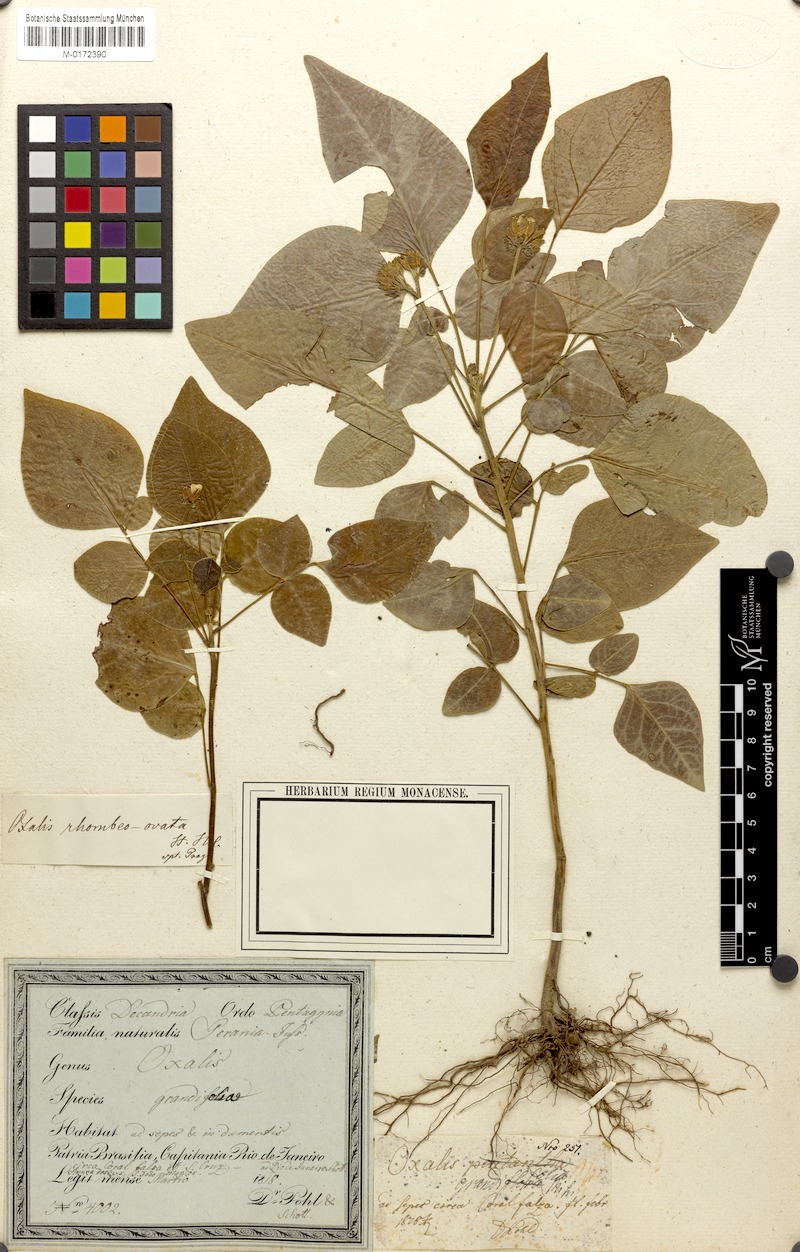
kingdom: Plantae
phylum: Tracheophyta
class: Magnoliopsida
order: Oxalidales
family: Oxalidaceae
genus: Oxalis
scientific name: Oxalis rhombeo-ovata
